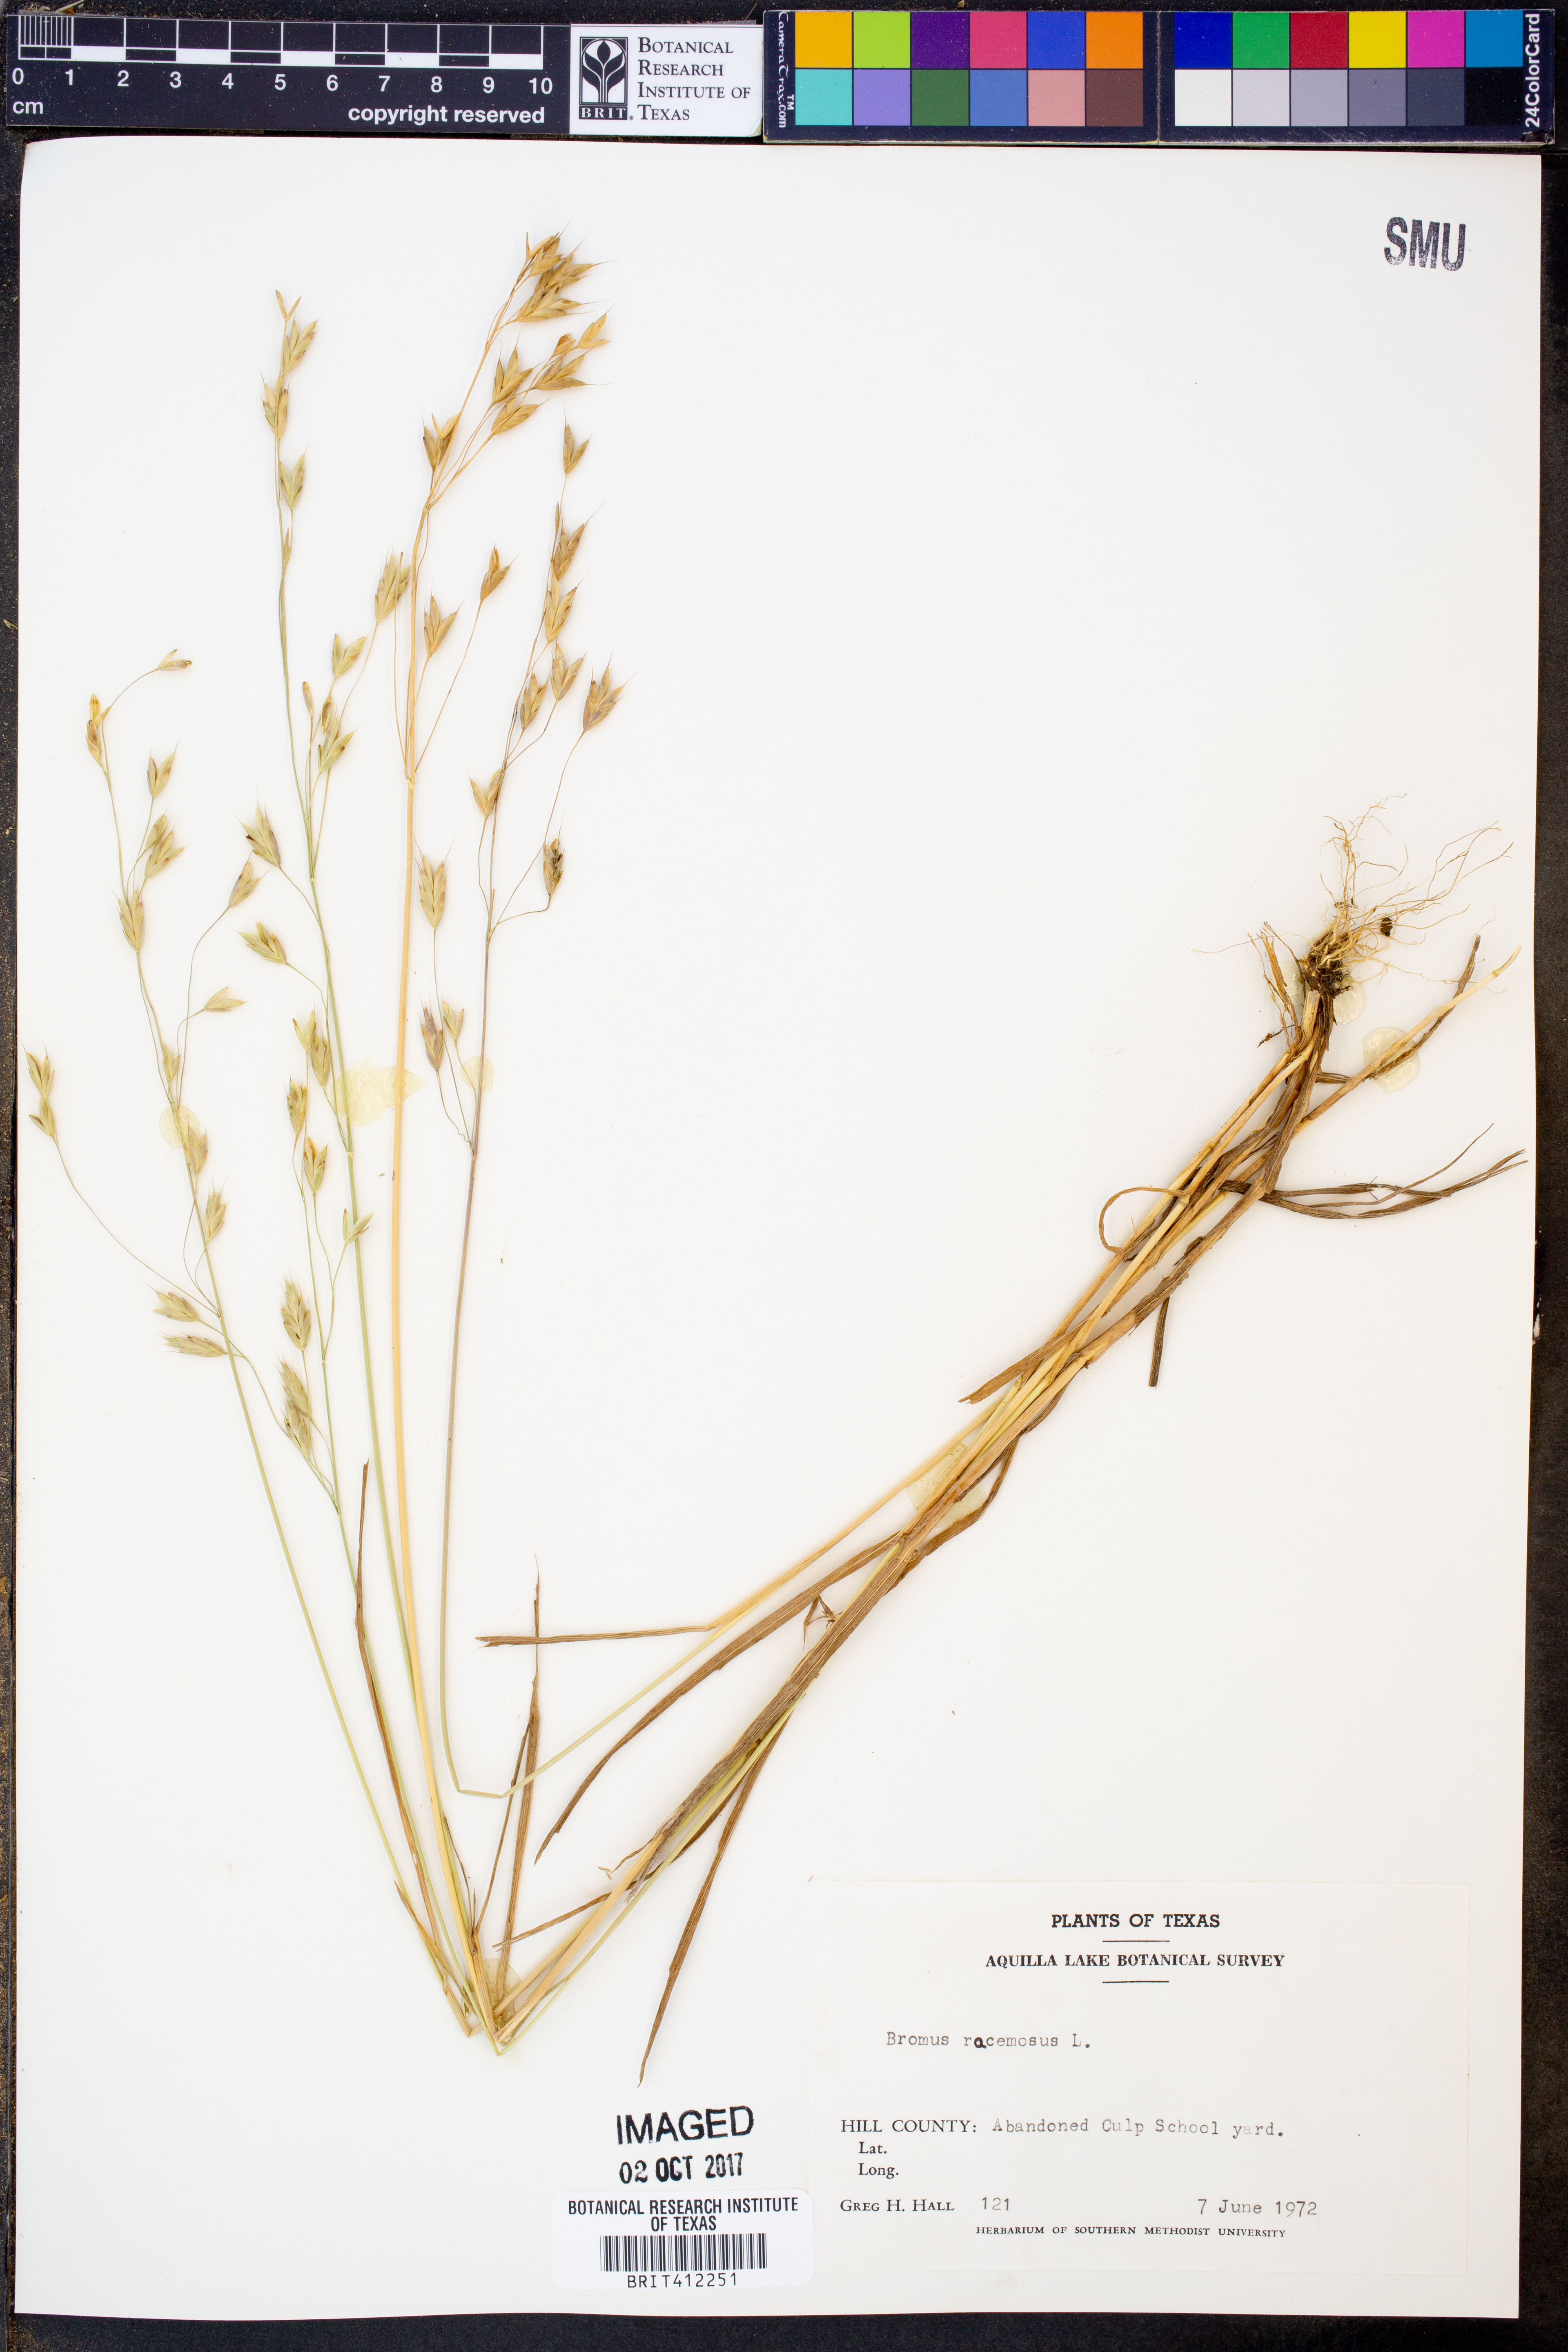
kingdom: Plantae
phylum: Tracheophyta
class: Liliopsida
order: Poales
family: Poaceae
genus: Bromus
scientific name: Bromus racemosus
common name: Bald brome
